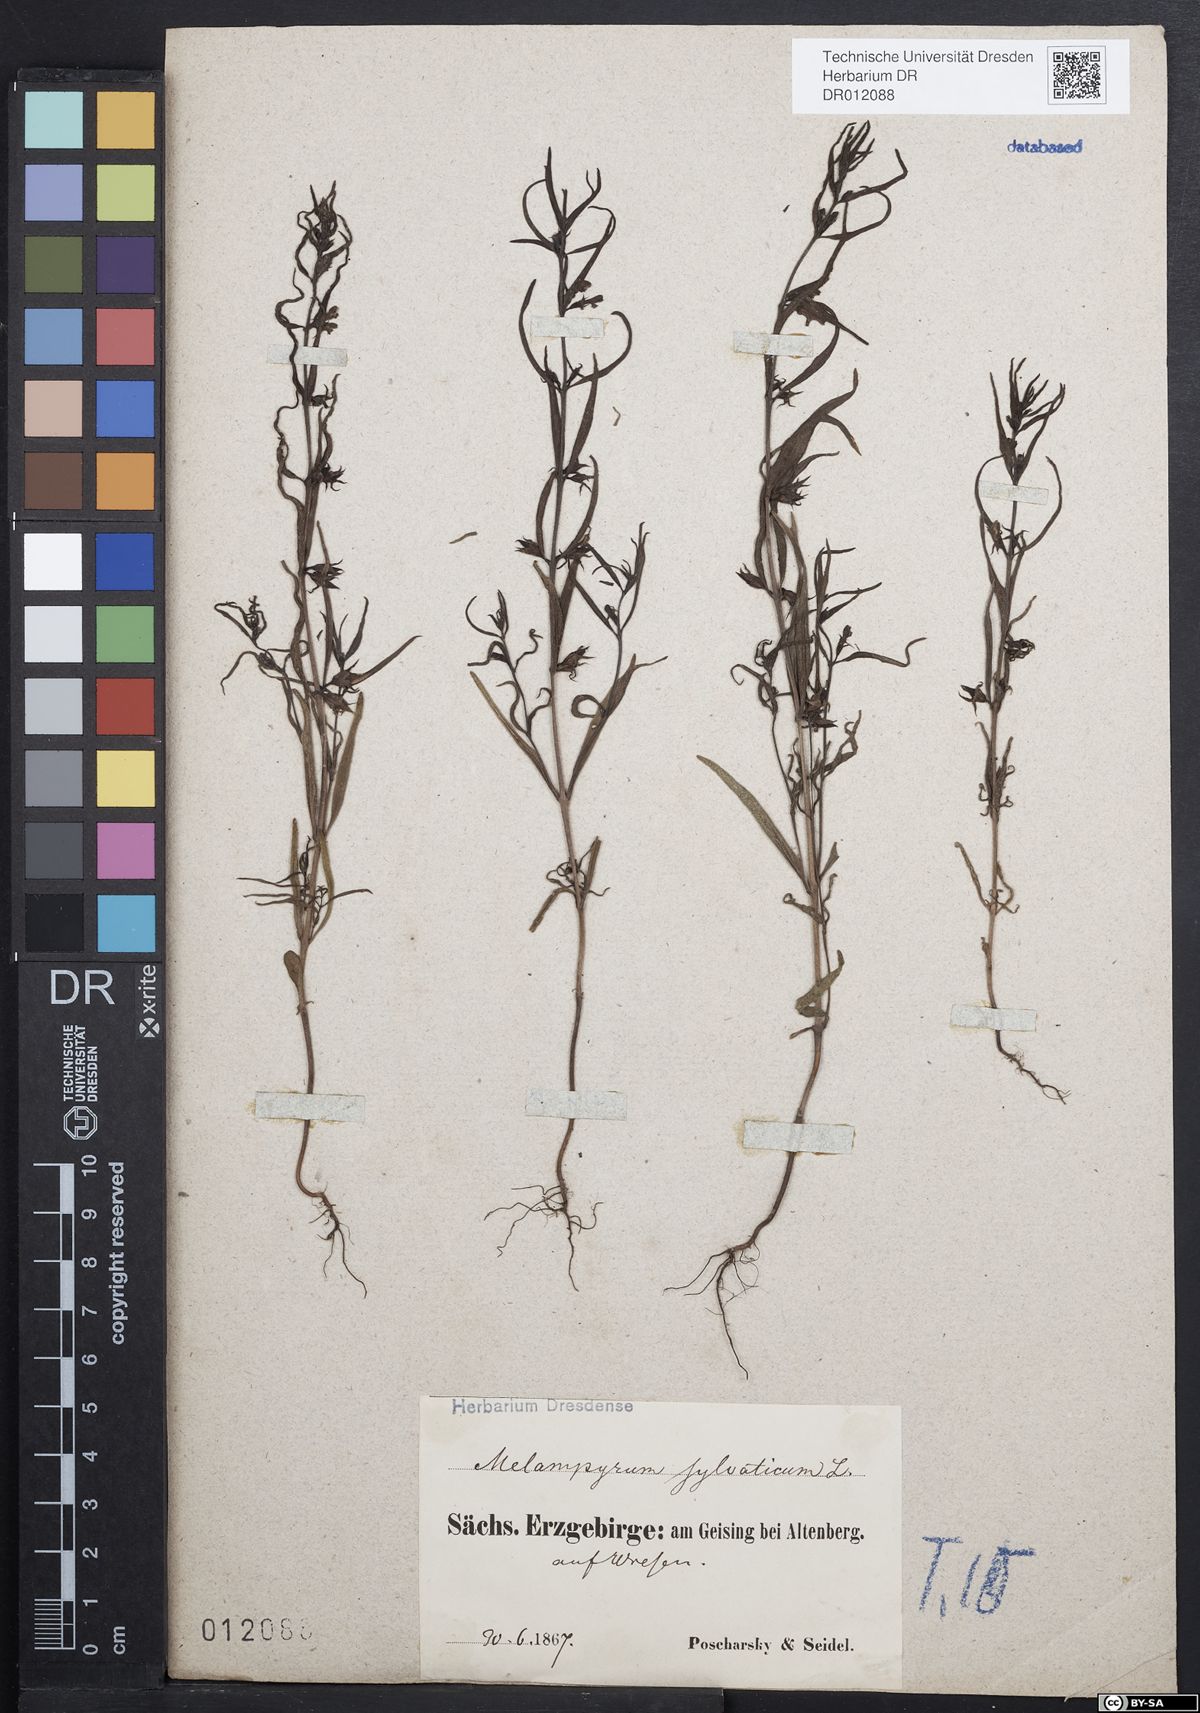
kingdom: Plantae
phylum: Tracheophyta
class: Magnoliopsida
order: Lamiales
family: Orobanchaceae
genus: Melampyrum
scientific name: Melampyrum sylvaticum
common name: Small cow-wheat
